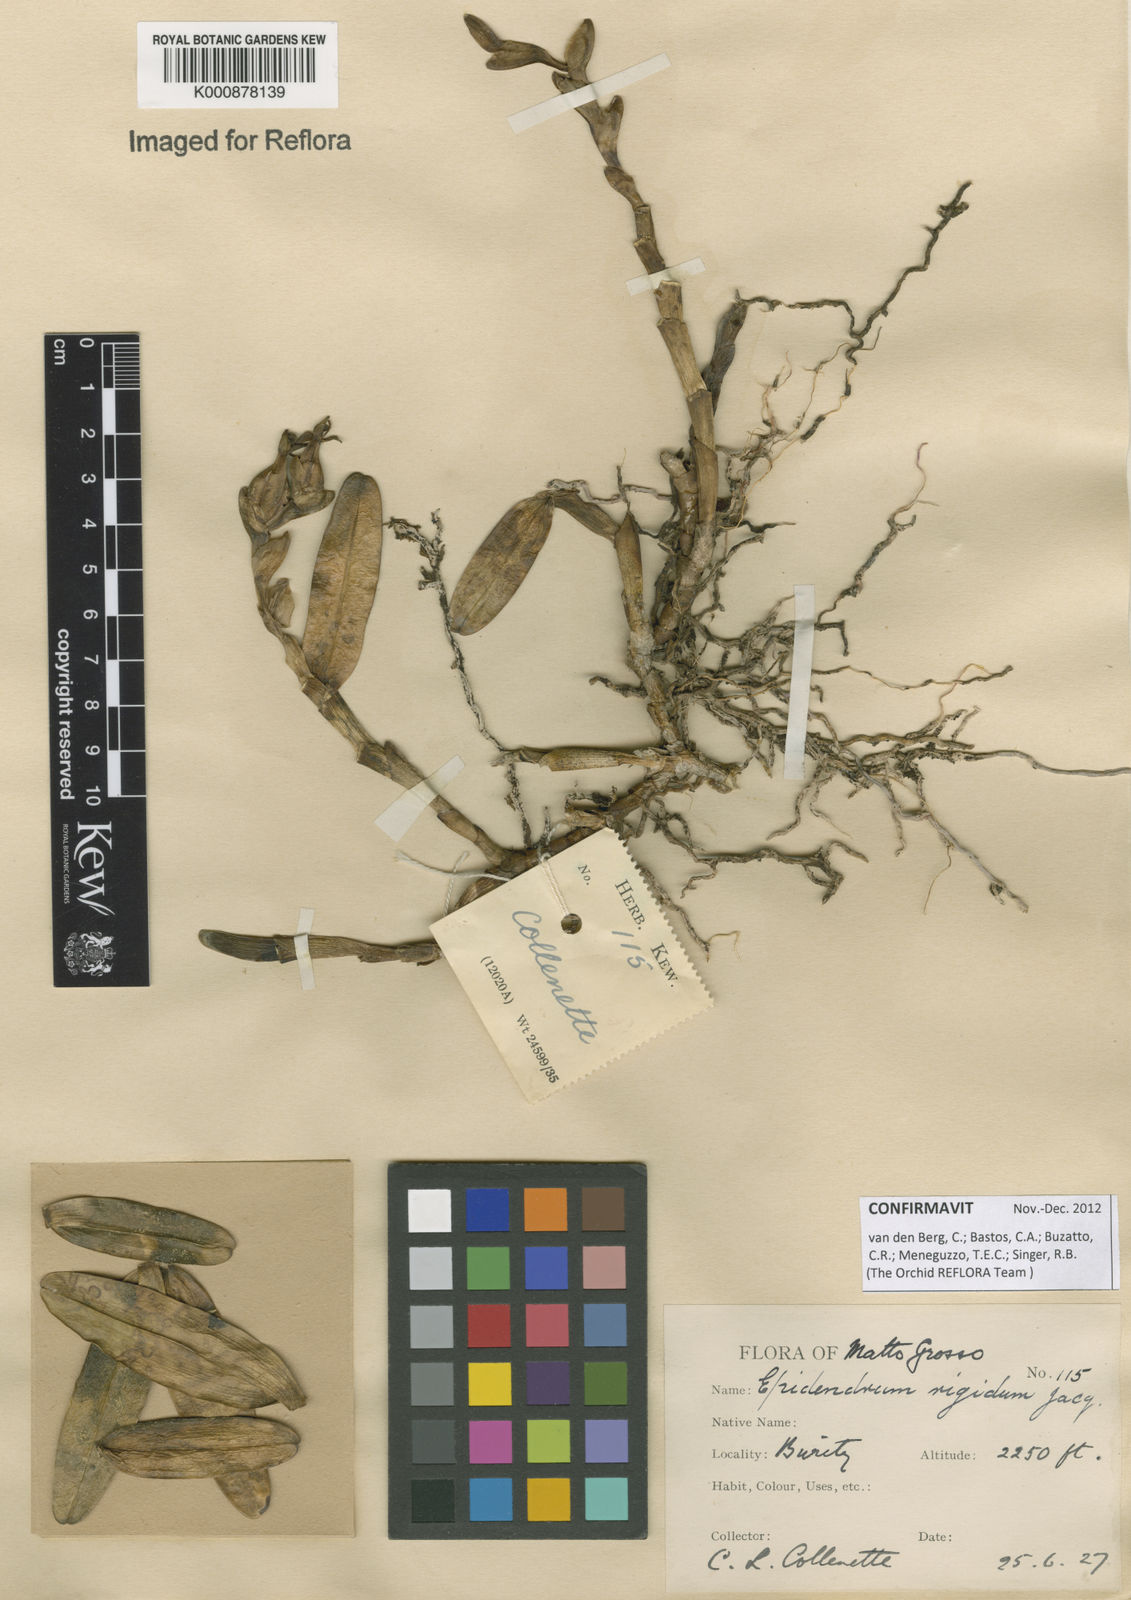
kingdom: Plantae
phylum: Tracheophyta
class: Liliopsida
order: Asparagales
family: Orchidaceae
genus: Epidendrum
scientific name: Epidendrum rigidum
